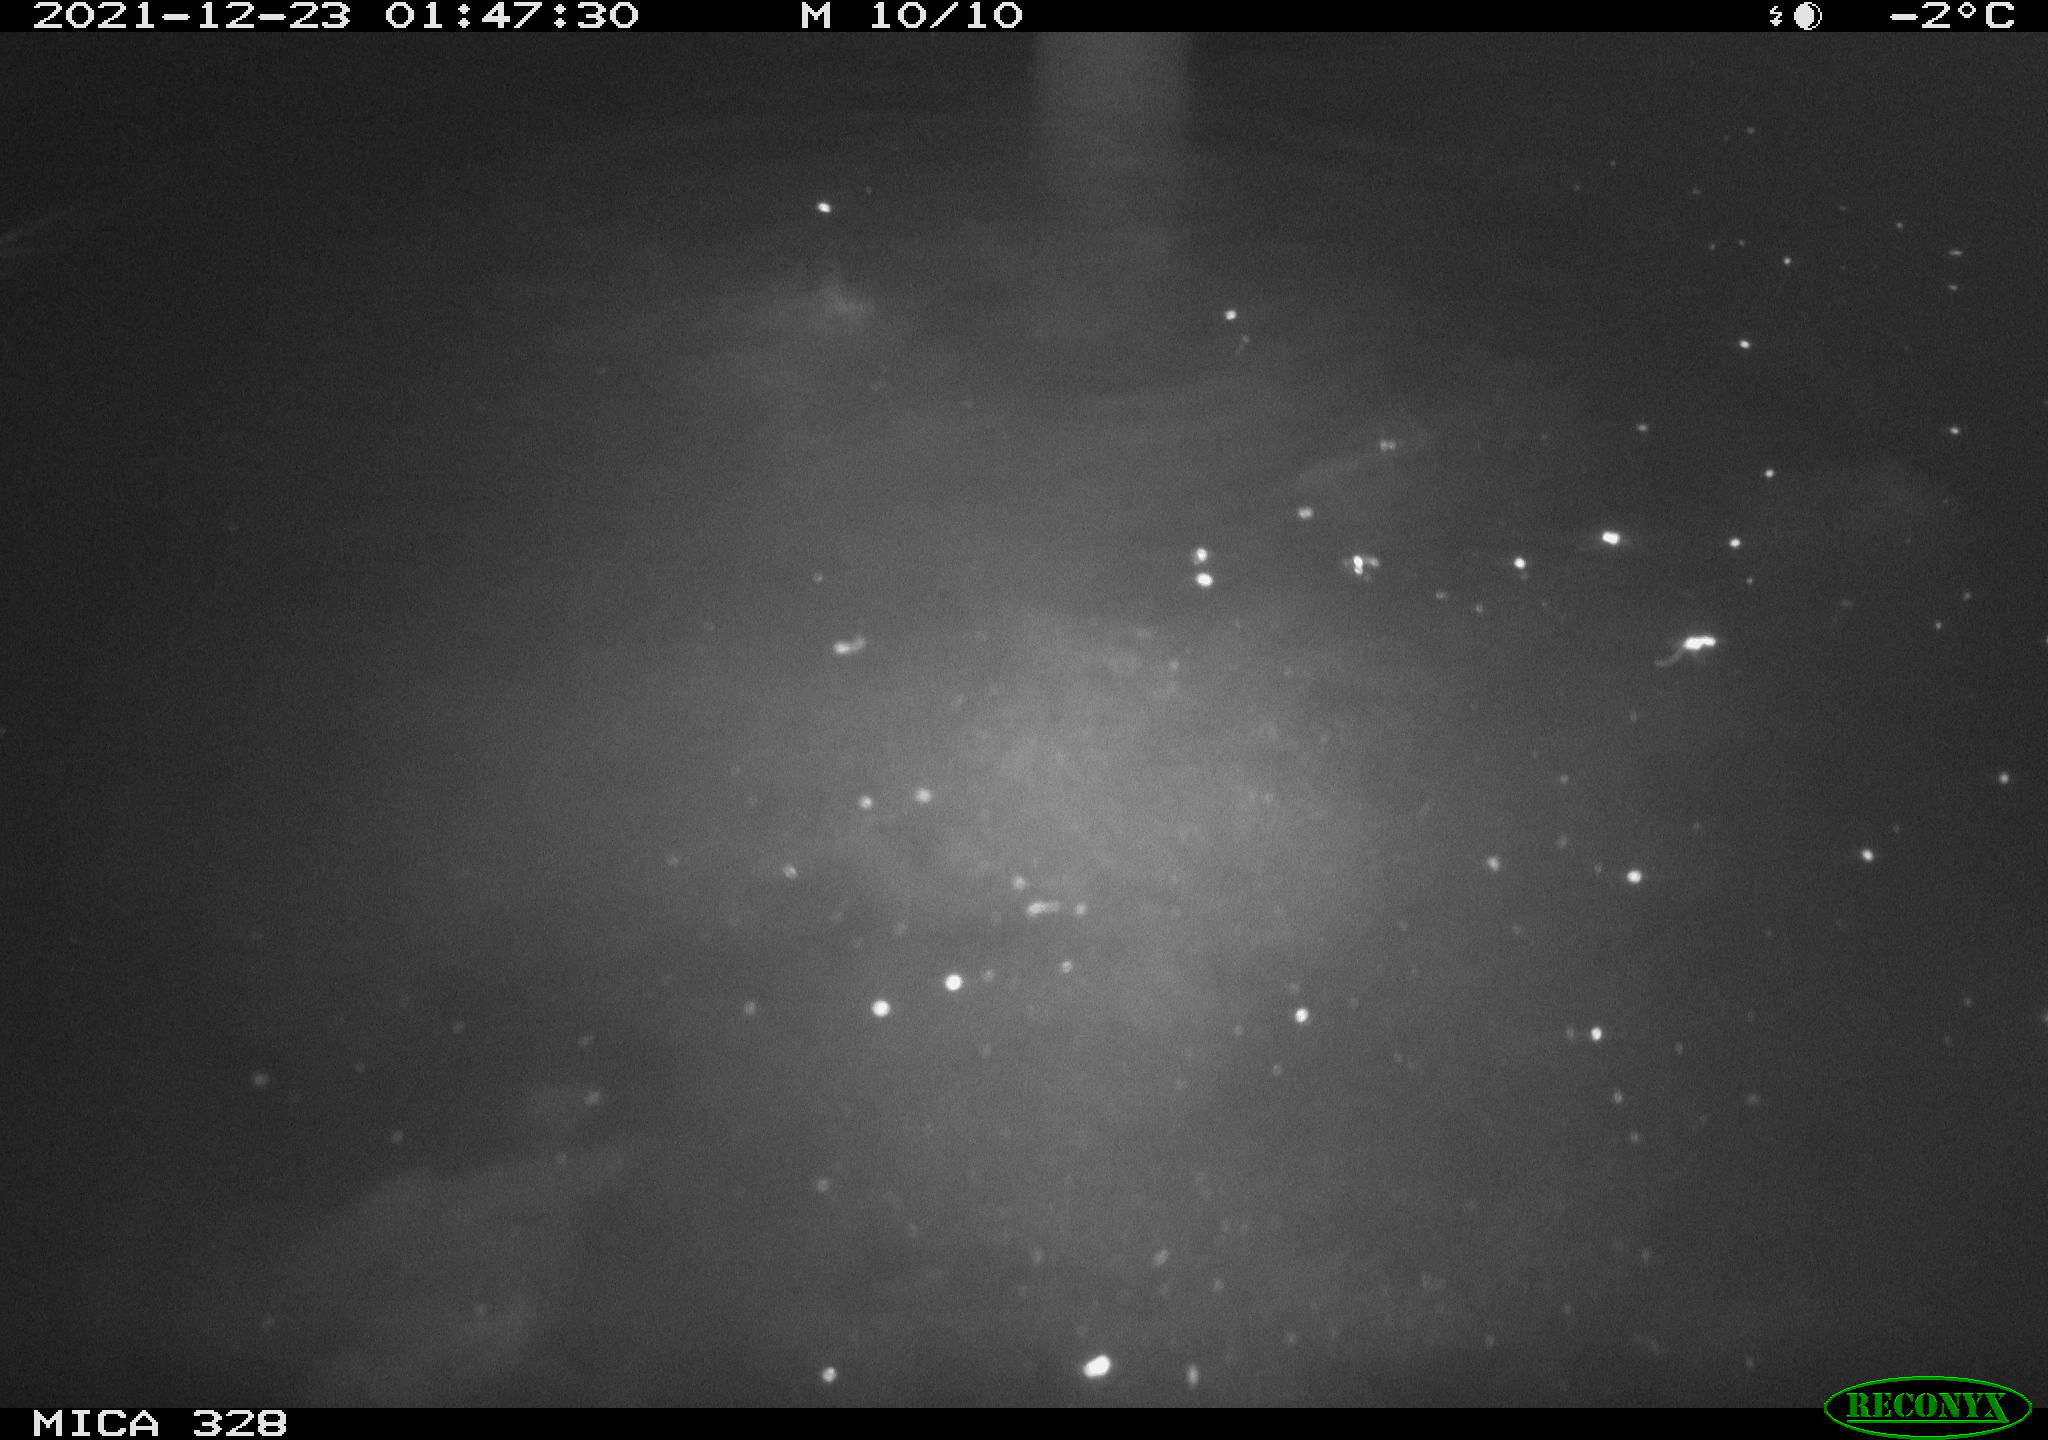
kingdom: Animalia
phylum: Chordata
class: Aves
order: Anseriformes
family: Anatidae
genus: Anas
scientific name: Anas platyrhynchos
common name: Mallard
